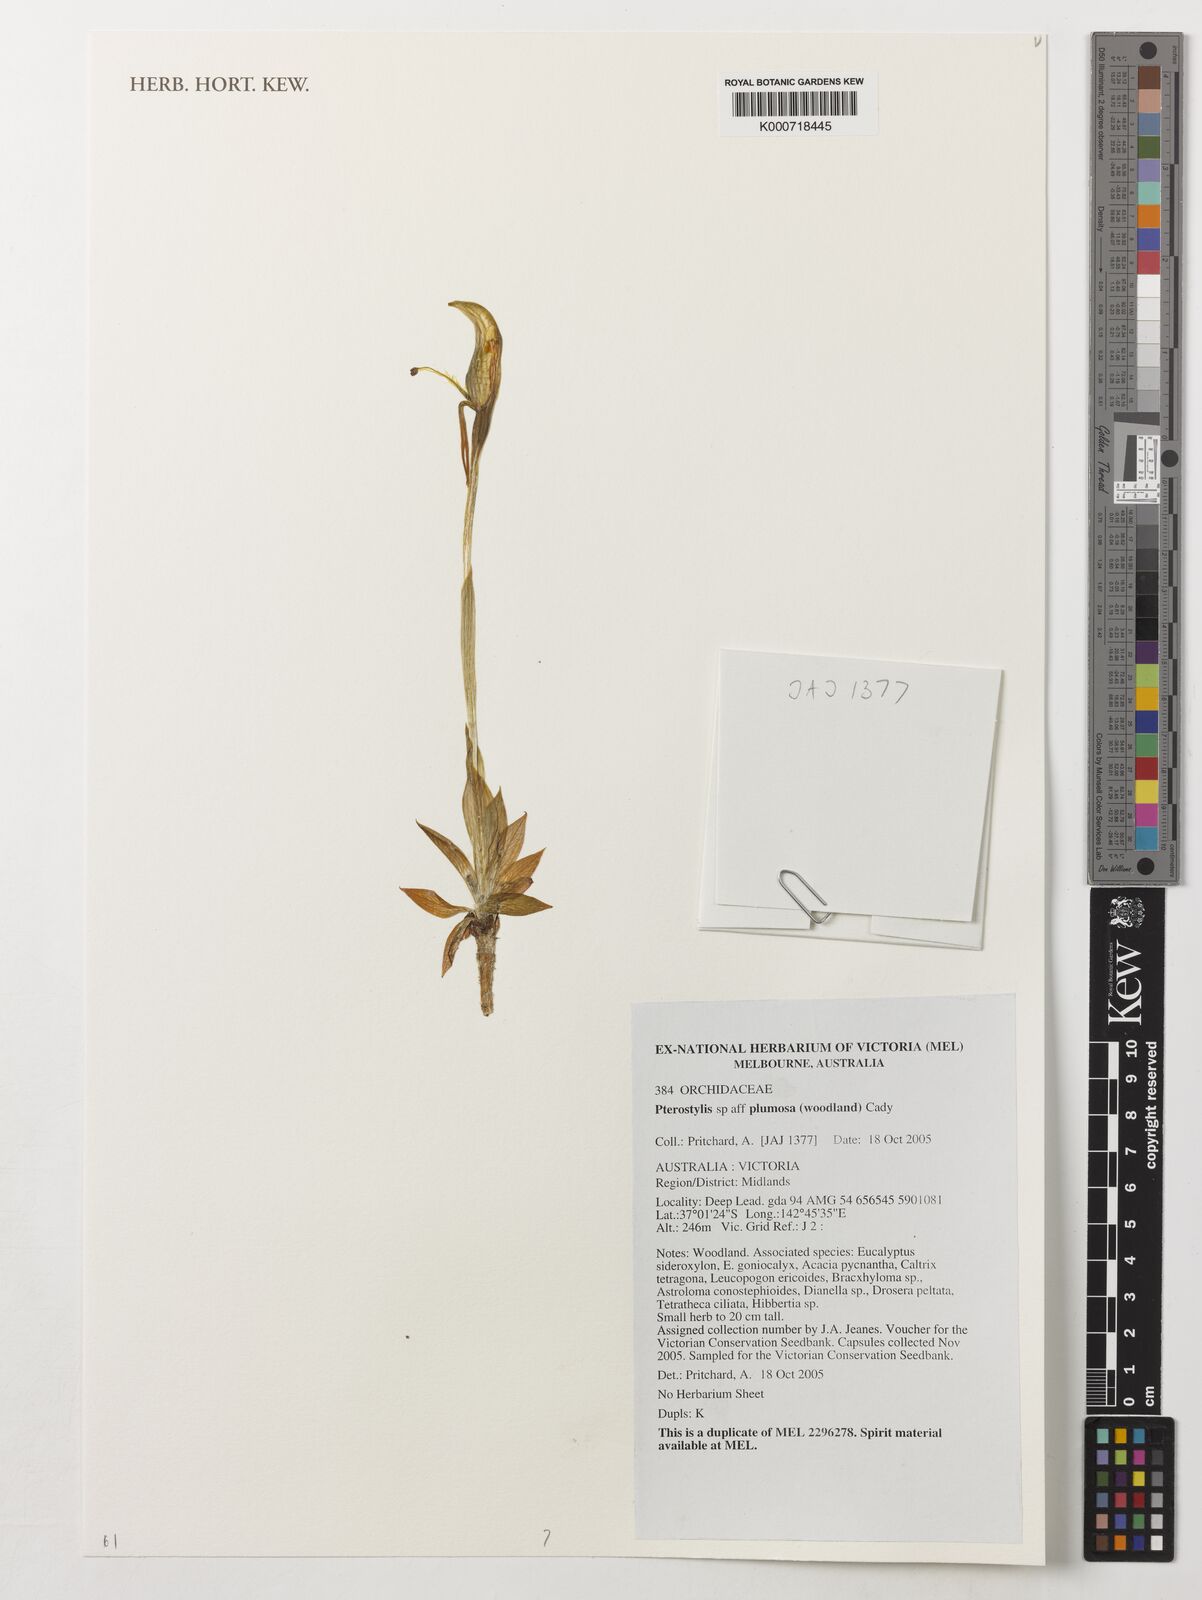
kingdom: Plantae
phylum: Tracheophyta
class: Liliopsida
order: Asparagales
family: Orchidaceae
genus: Pterostylis
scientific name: Pterostylis plumosa
